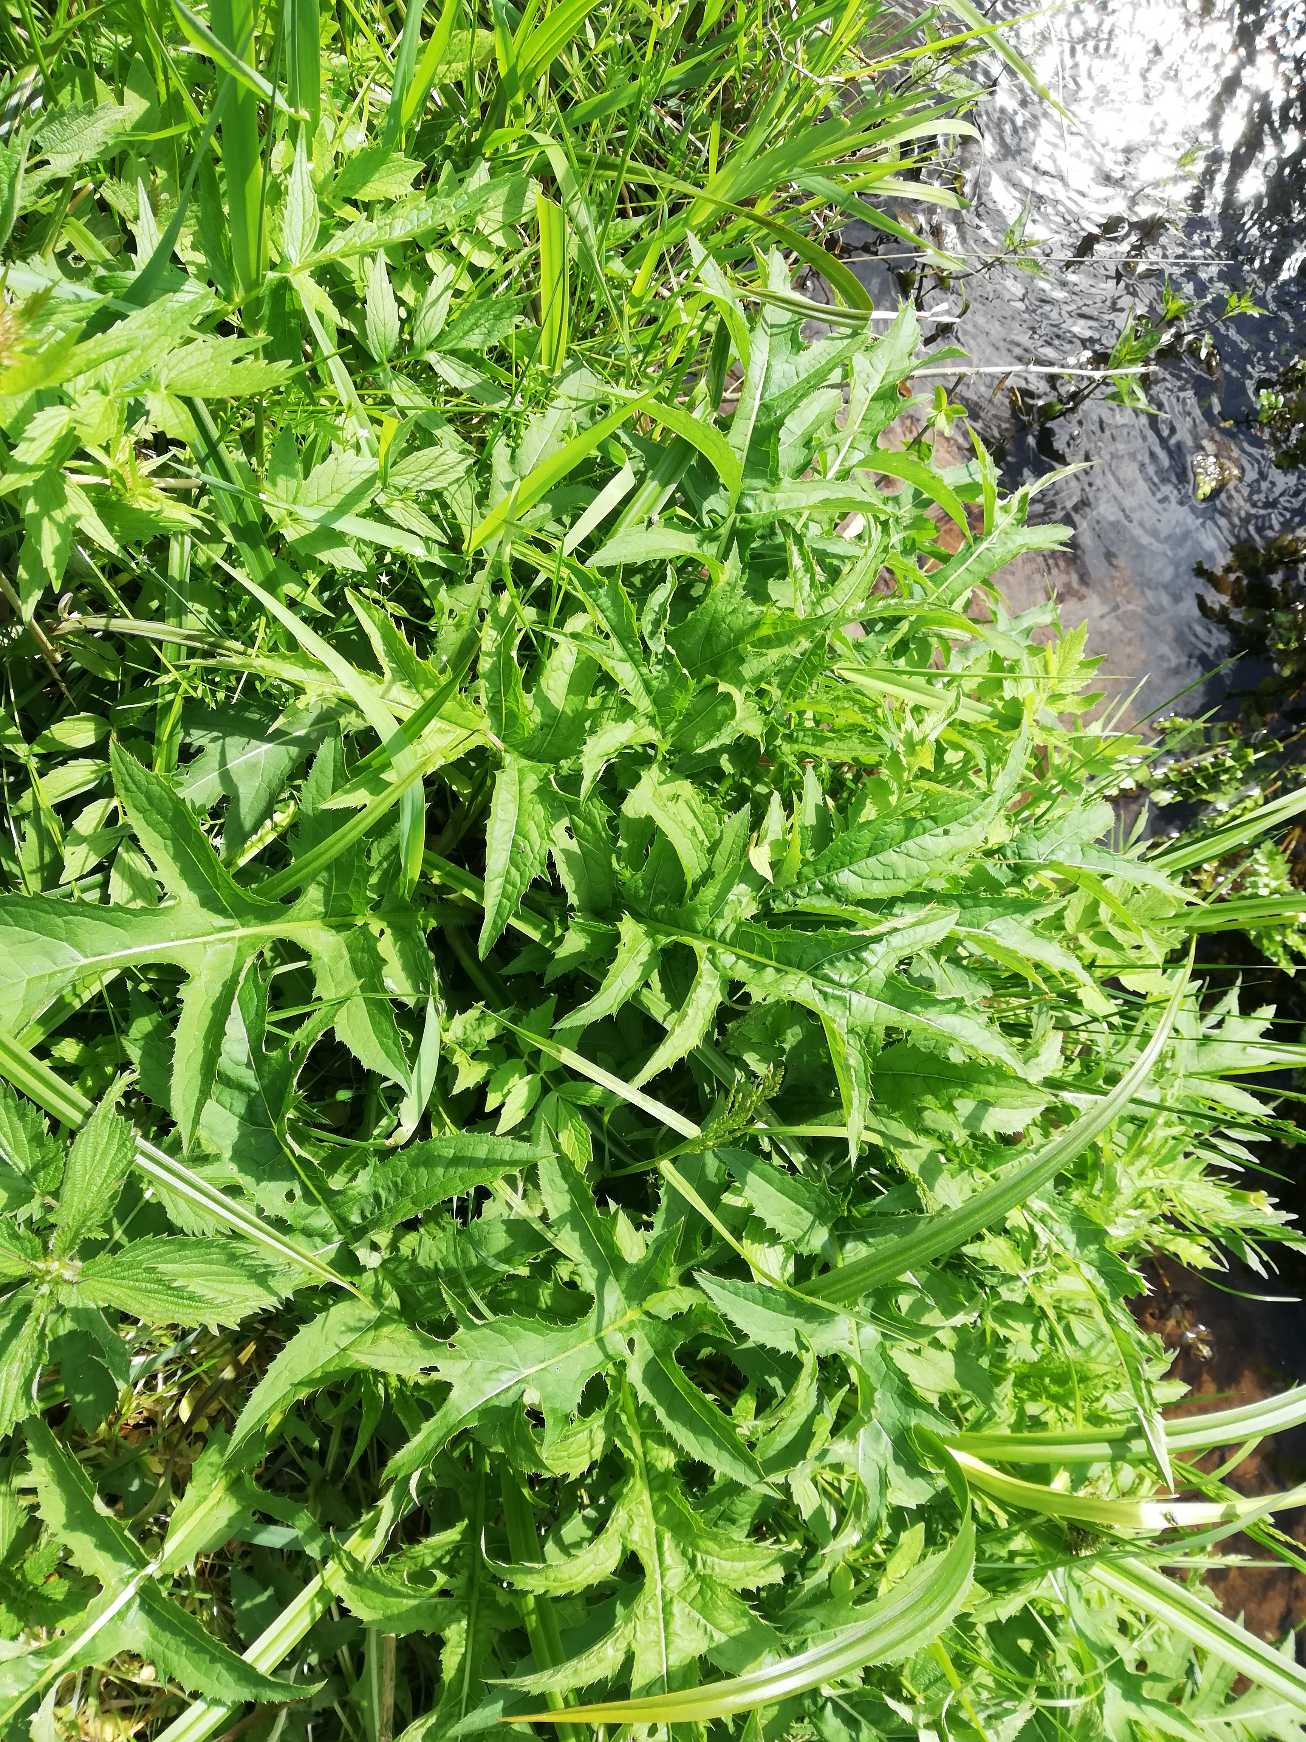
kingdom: Plantae
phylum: Tracheophyta
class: Magnoliopsida
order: Asterales
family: Asteraceae
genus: Cirsium
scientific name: Cirsium oleraceum
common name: Kål-tidsel
